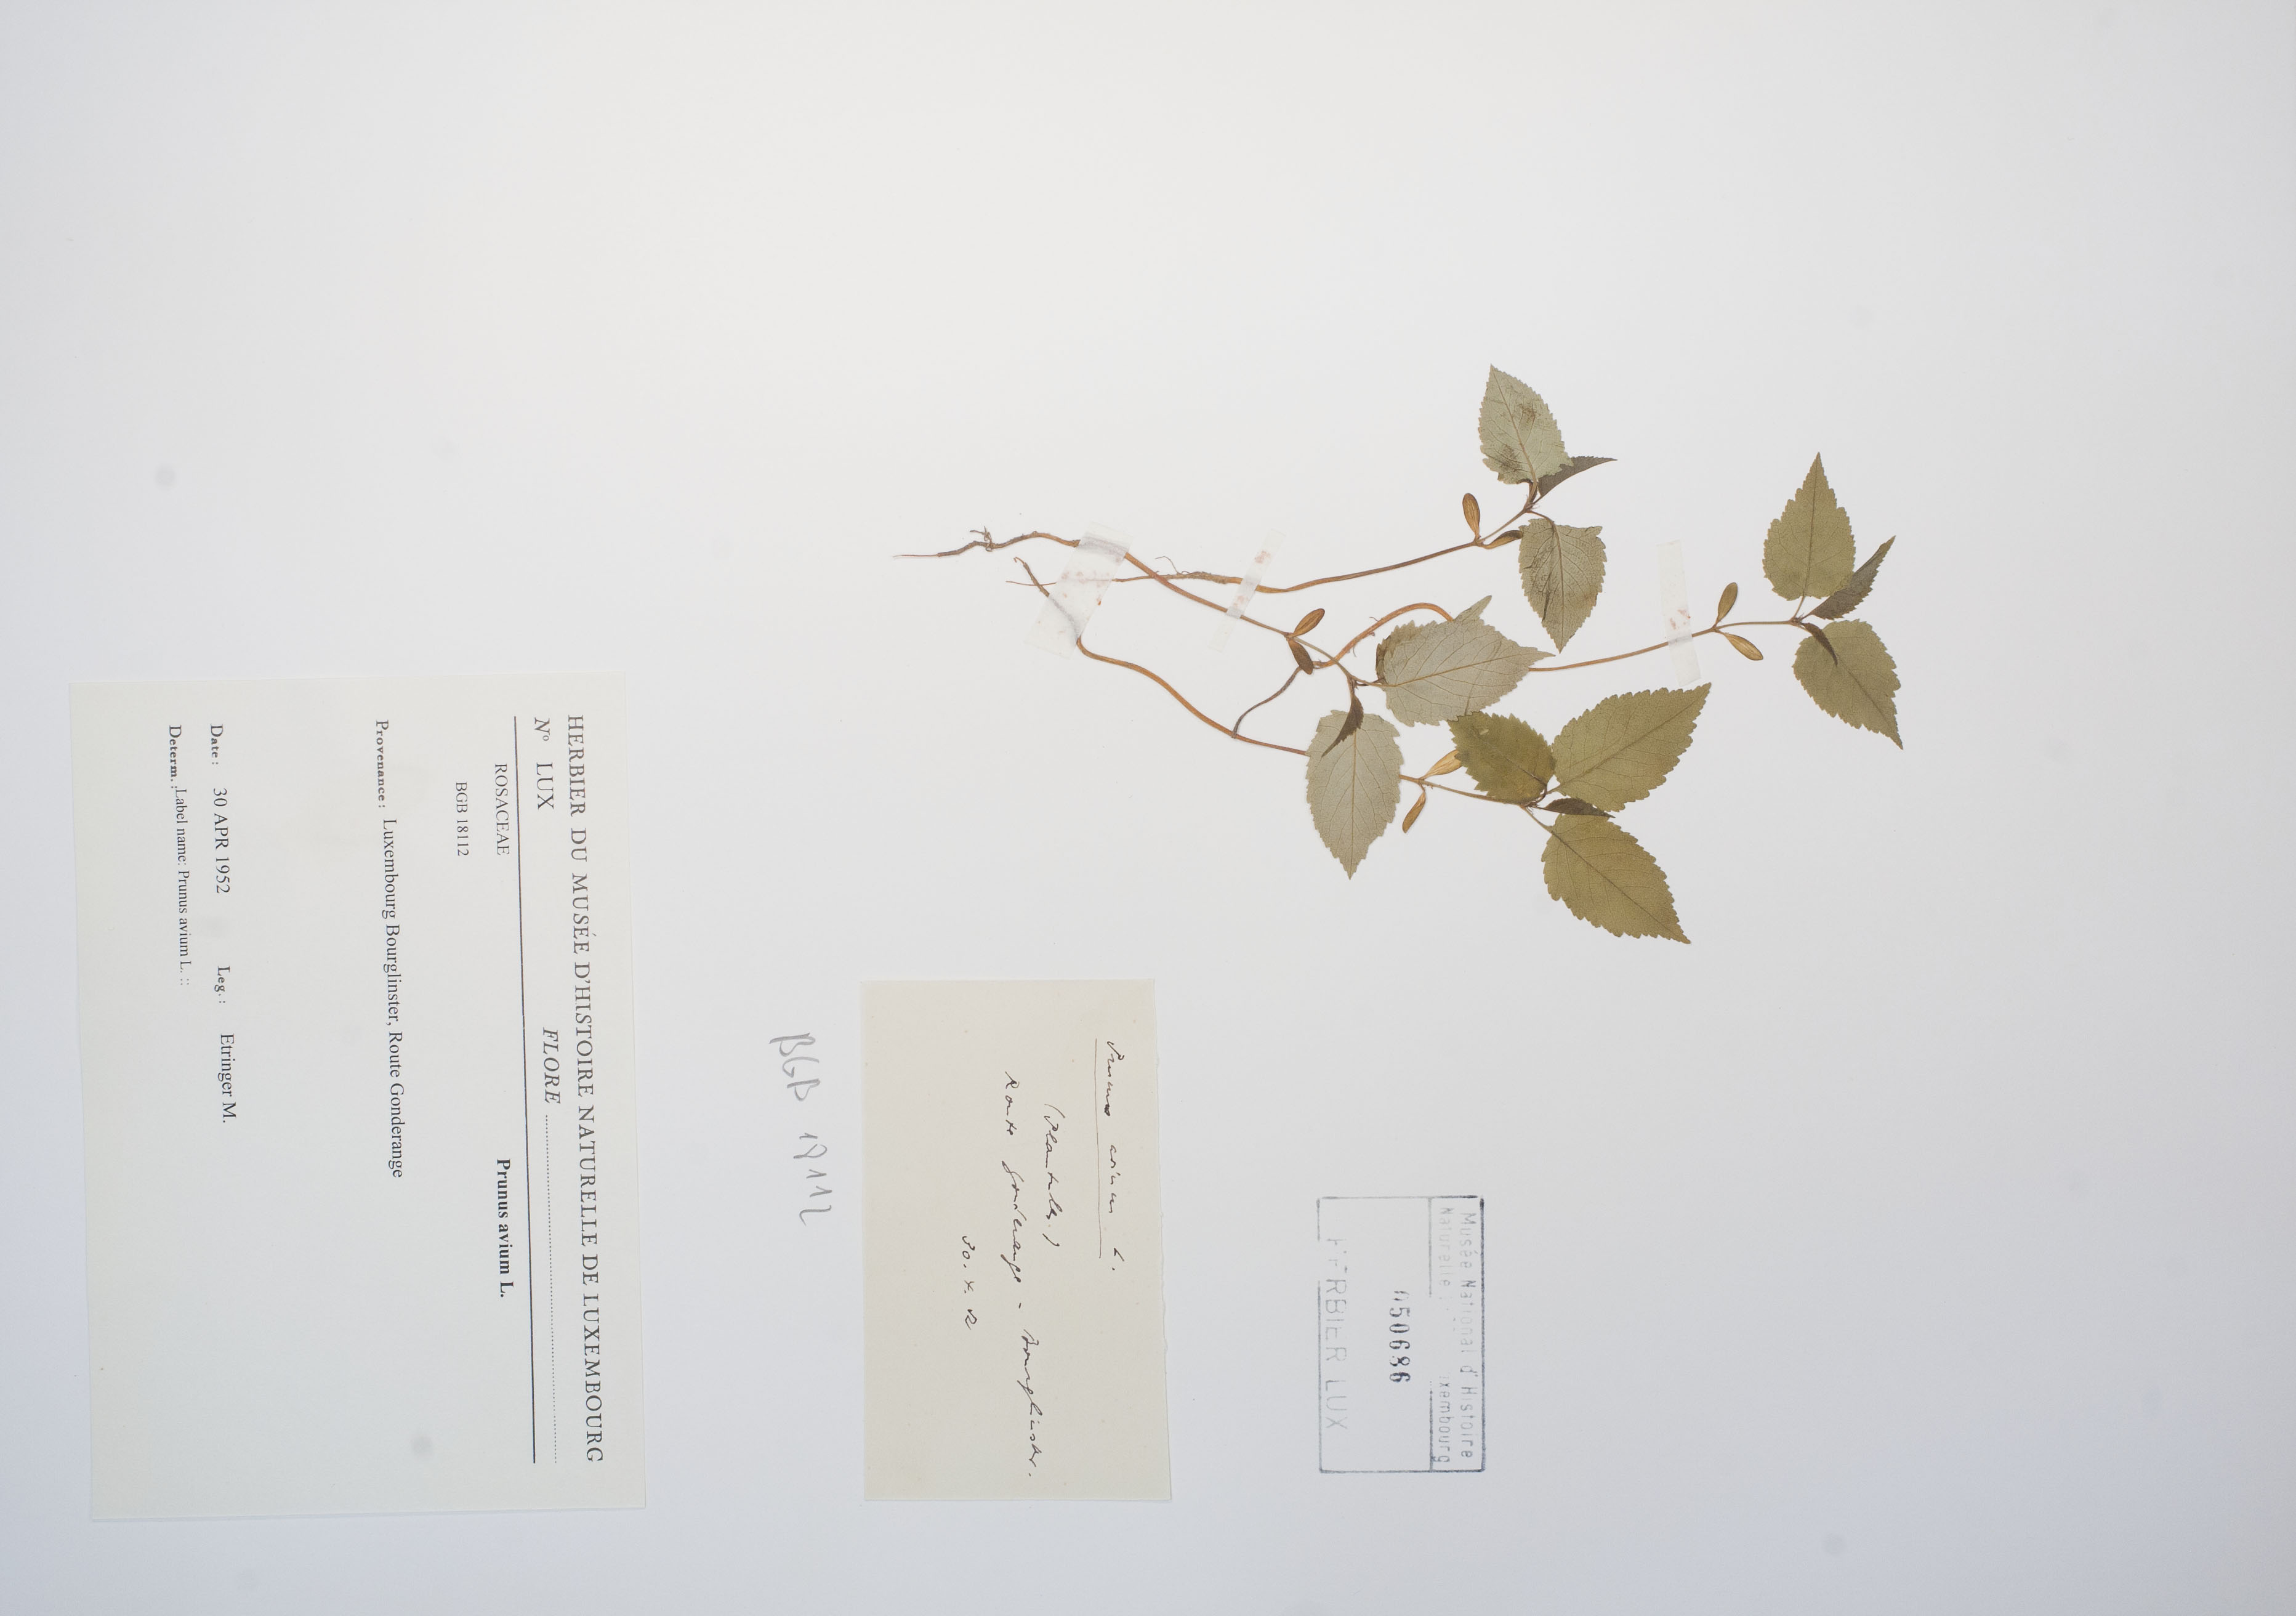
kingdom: Plantae
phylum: Tracheophyta
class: Magnoliopsida
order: Rosales
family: Rosaceae
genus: Prunus
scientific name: Prunus avium
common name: Sweet cherry
